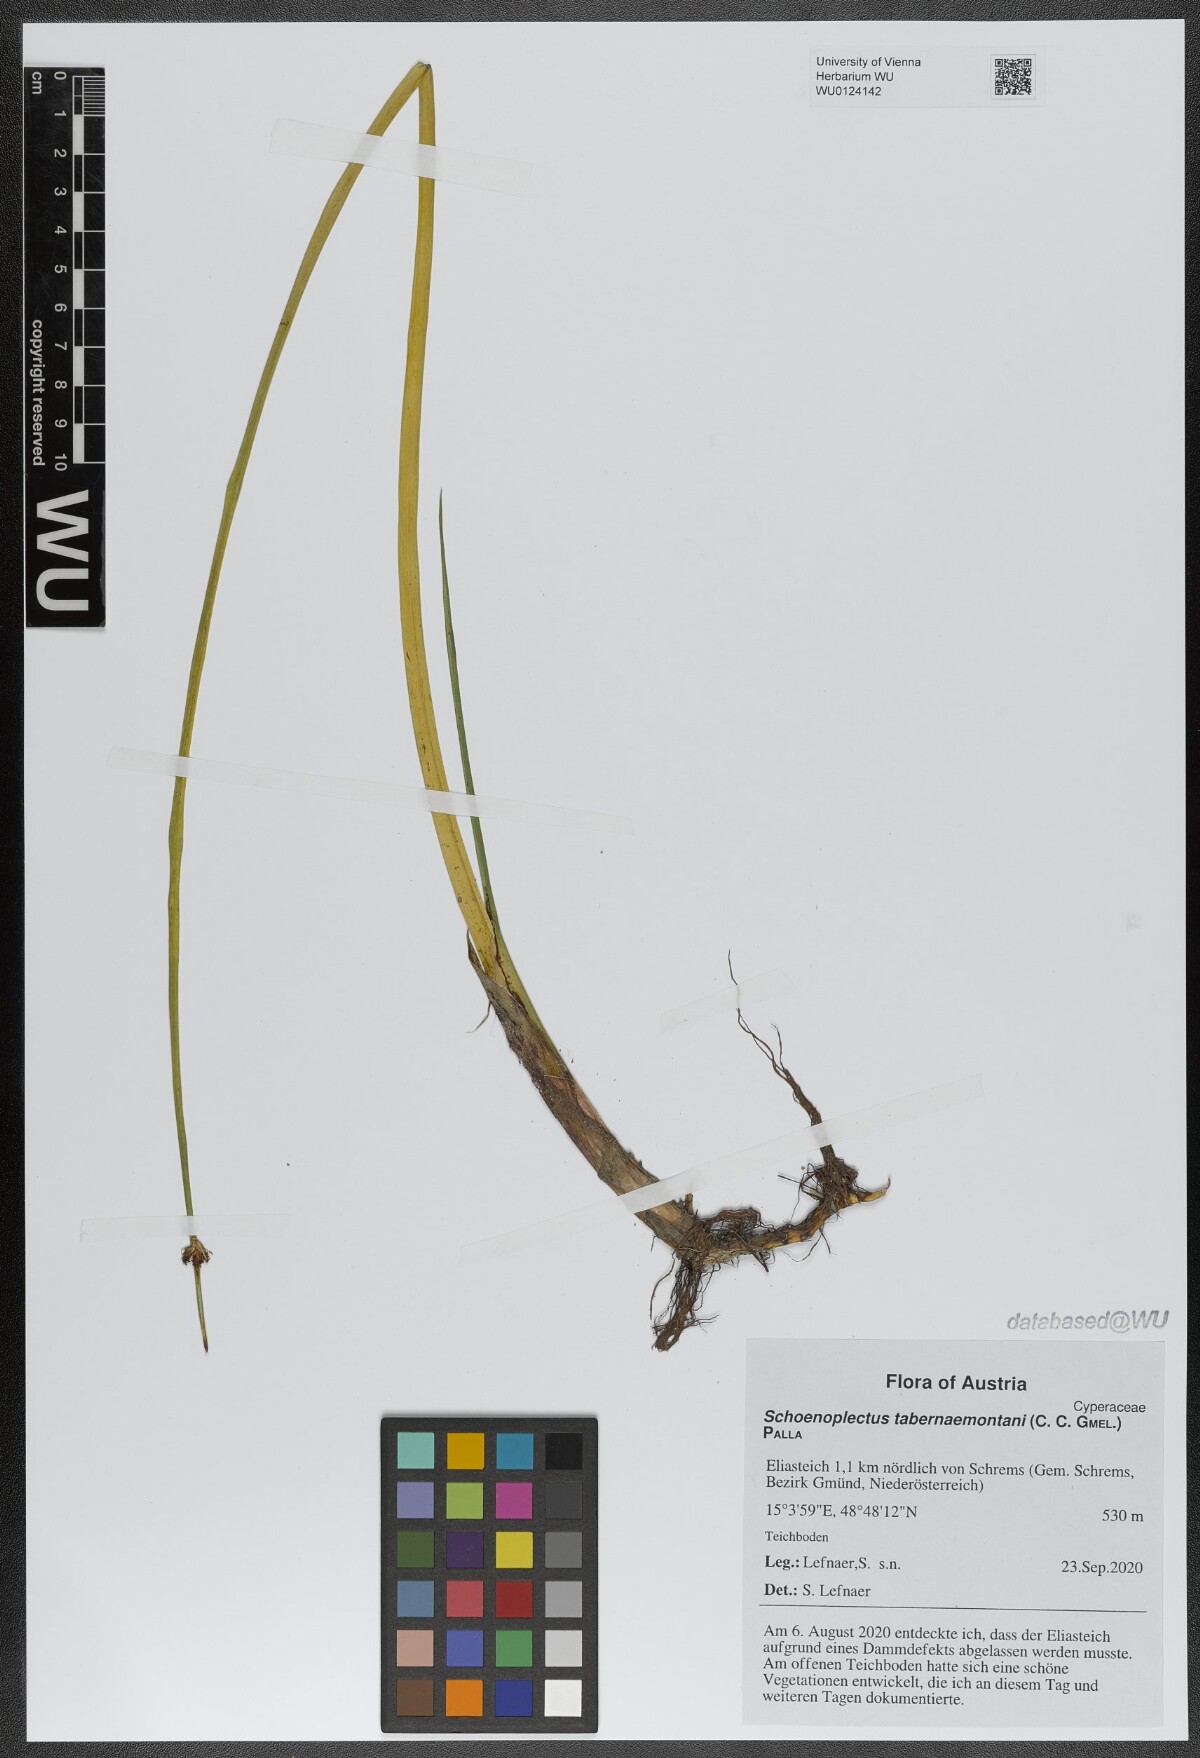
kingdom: Plantae
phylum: Tracheophyta
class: Liliopsida
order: Poales
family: Cyperaceae
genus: Schoenoplectus
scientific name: Schoenoplectus tabernaemontani
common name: Grey club-rush
